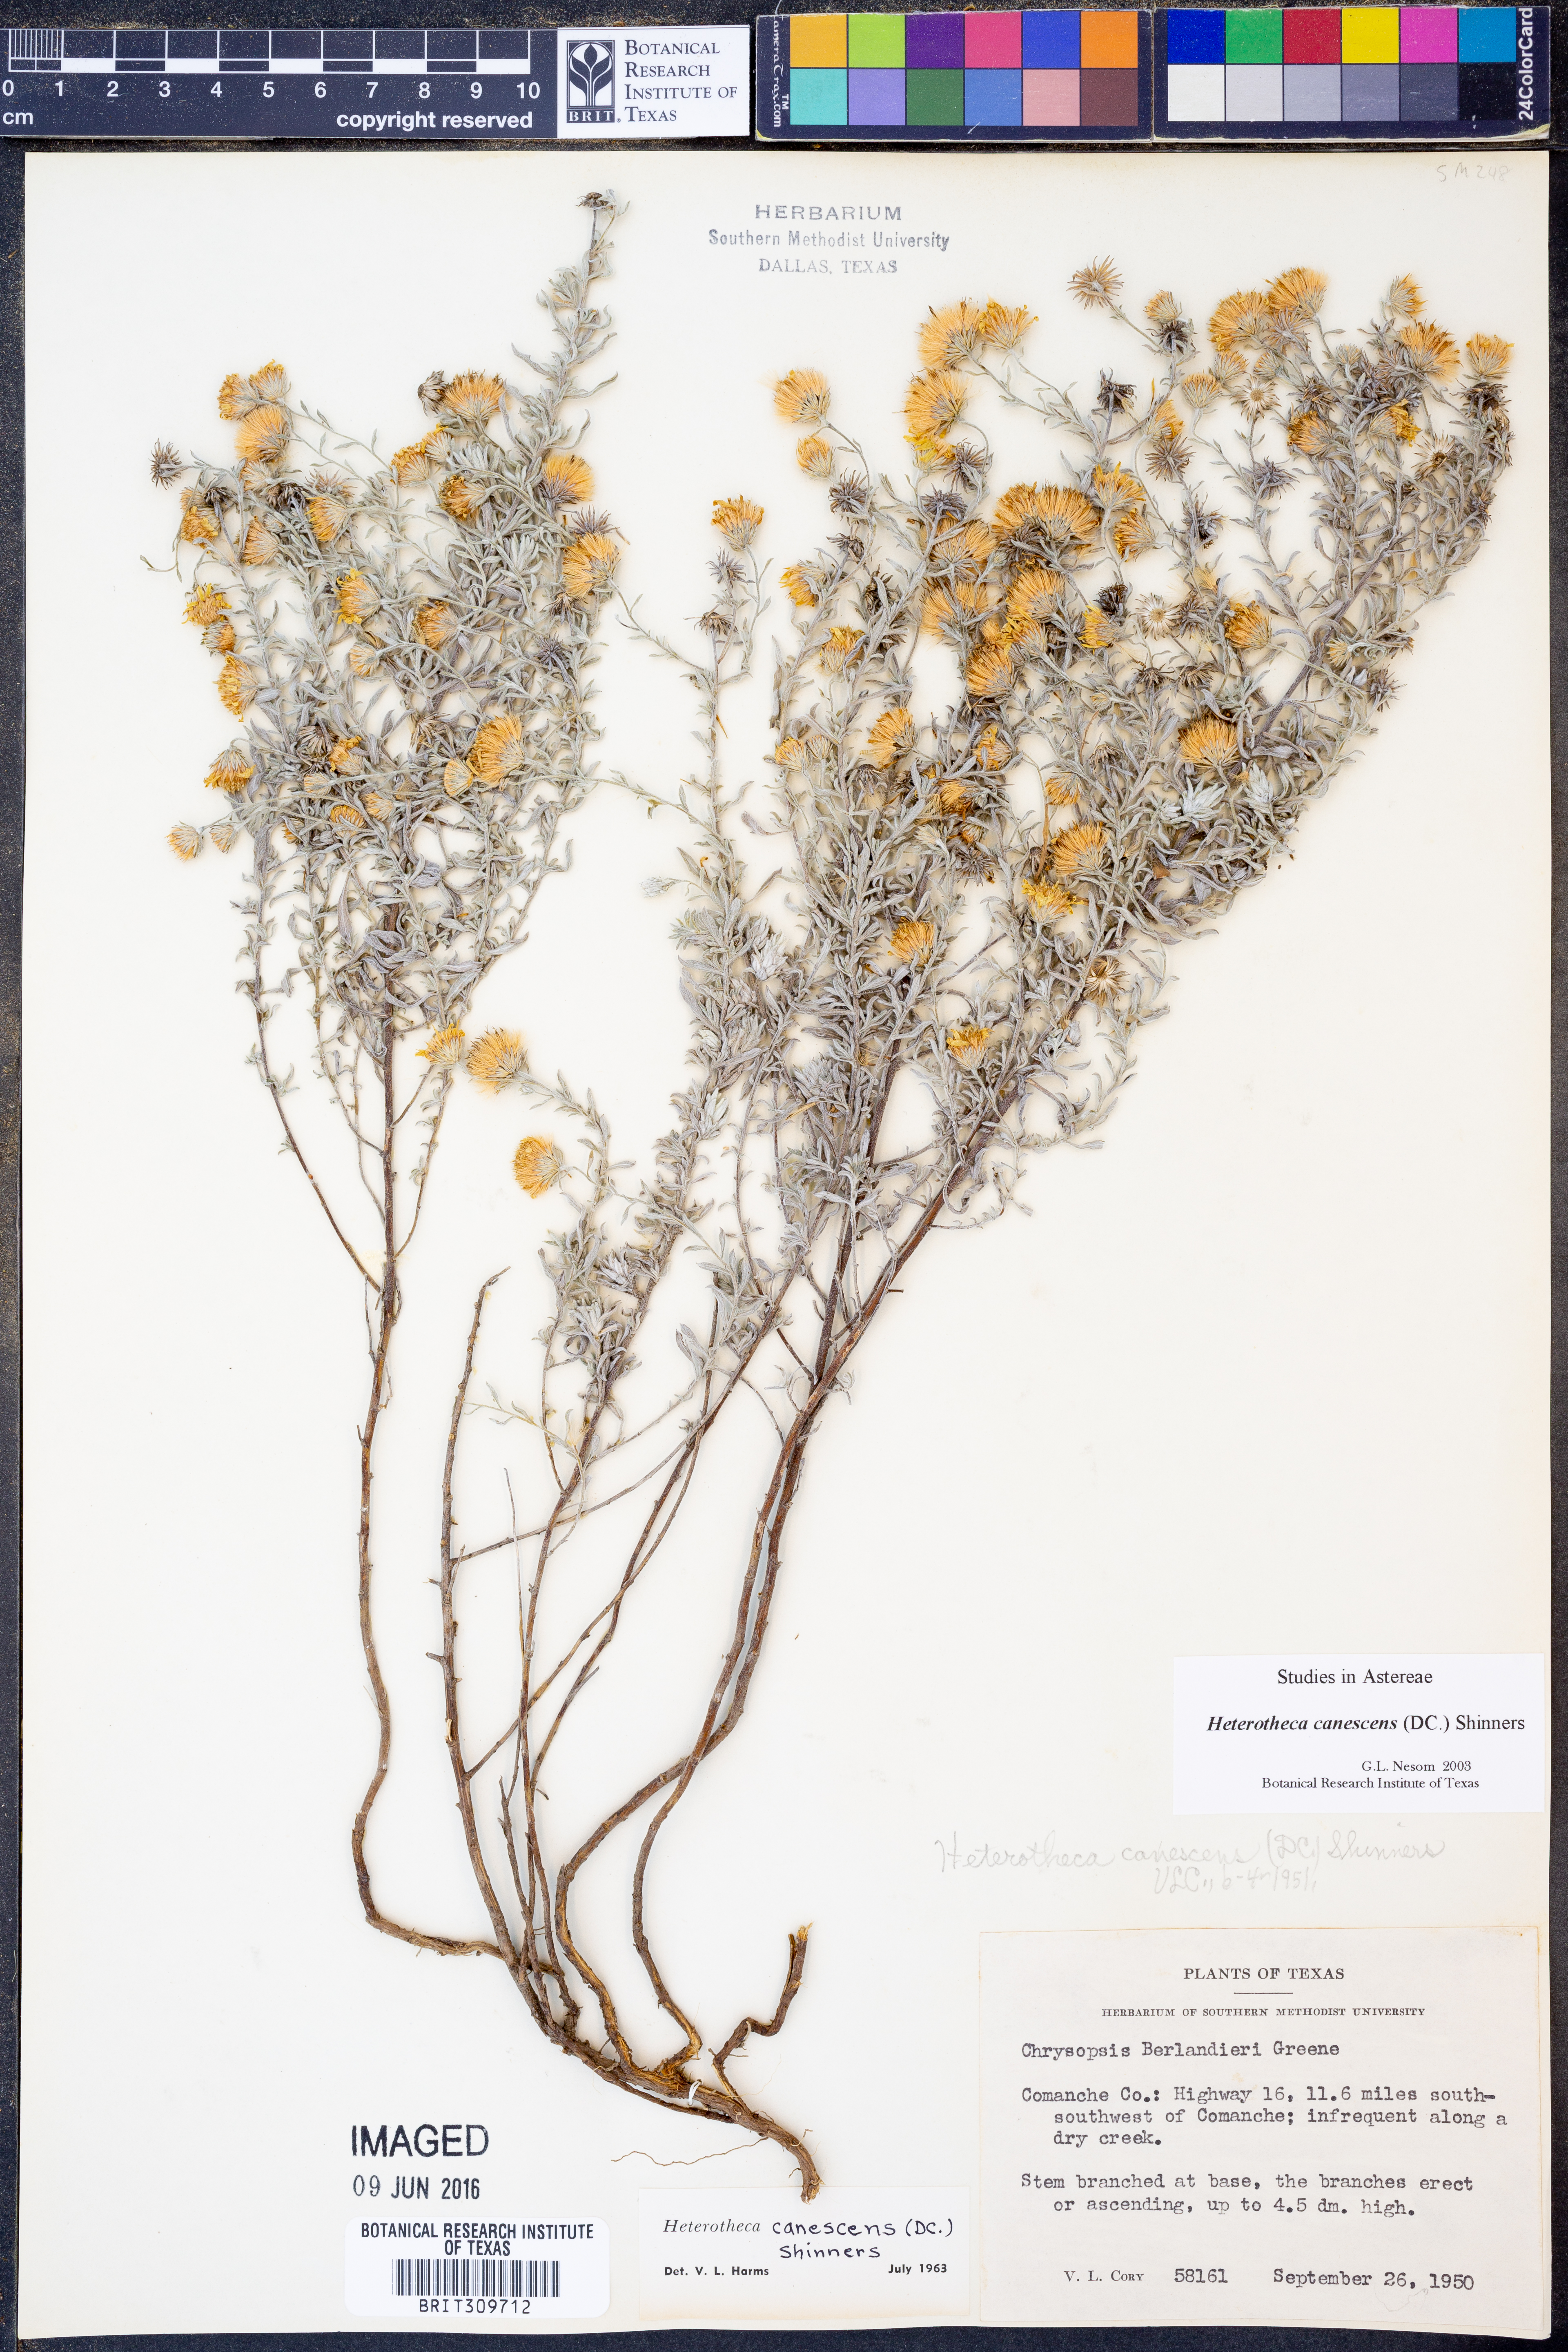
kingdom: Plantae
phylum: Tracheophyta
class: Magnoliopsida
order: Asterales
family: Asteraceae
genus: Heterotheca
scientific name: Heterotheca canescens
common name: Hoary golden-aster
